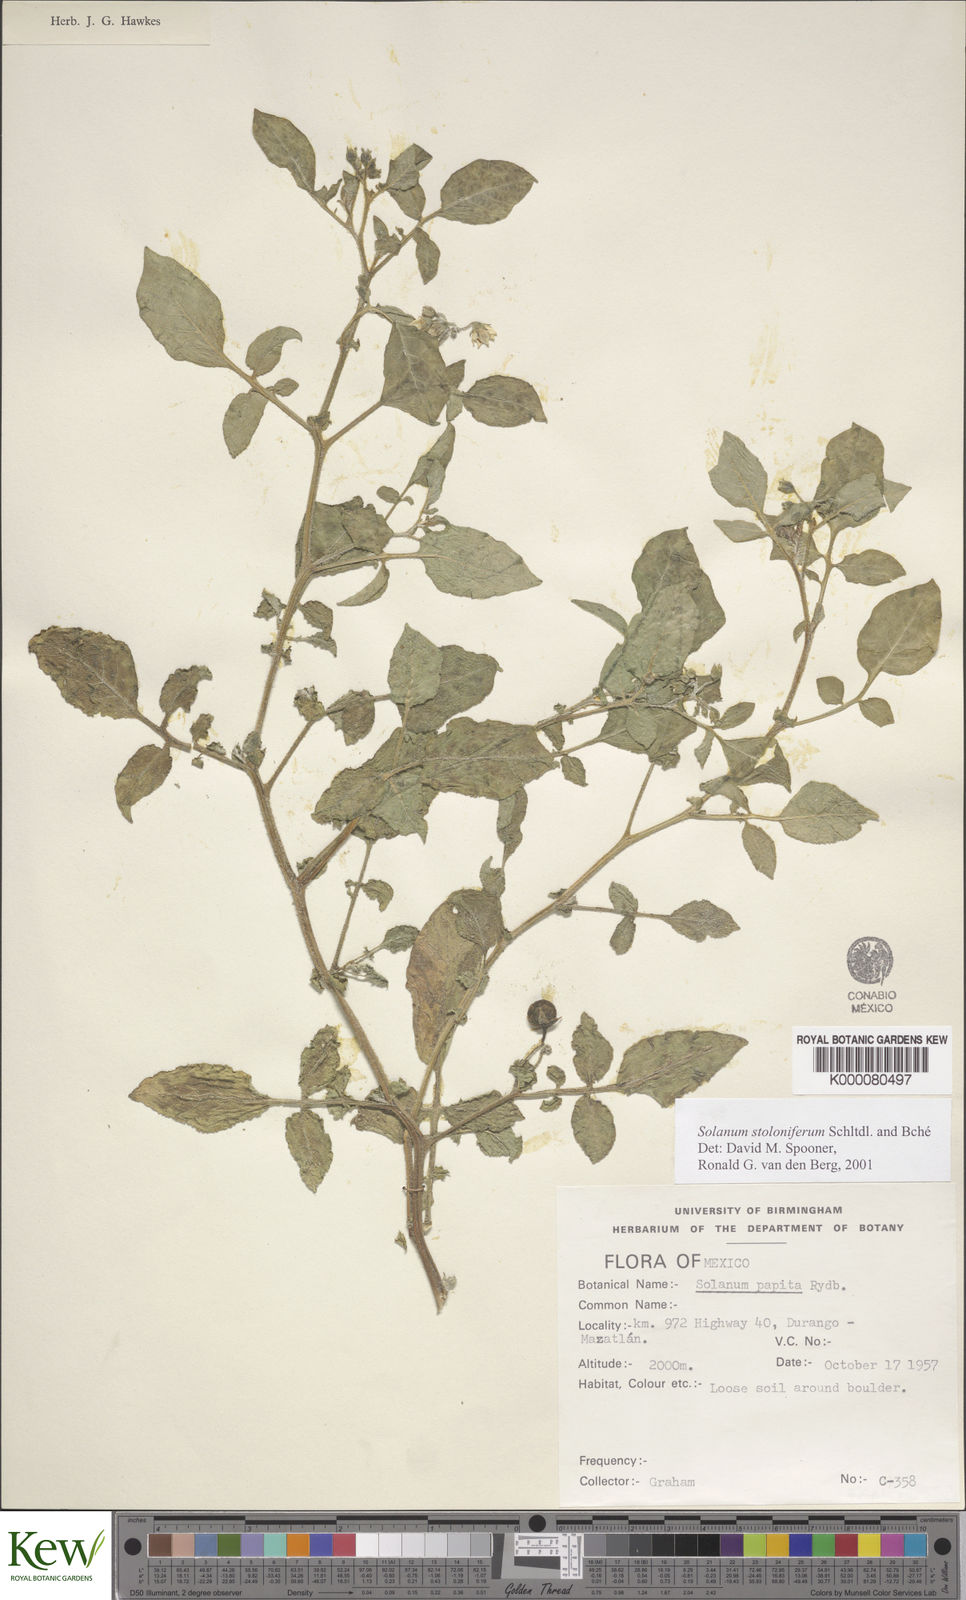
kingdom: Plantae
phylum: Tracheophyta
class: Magnoliopsida
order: Solanales
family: Solanaceae
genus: Solanum
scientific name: Solanum stoloniferum
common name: Fendler's nighshade
